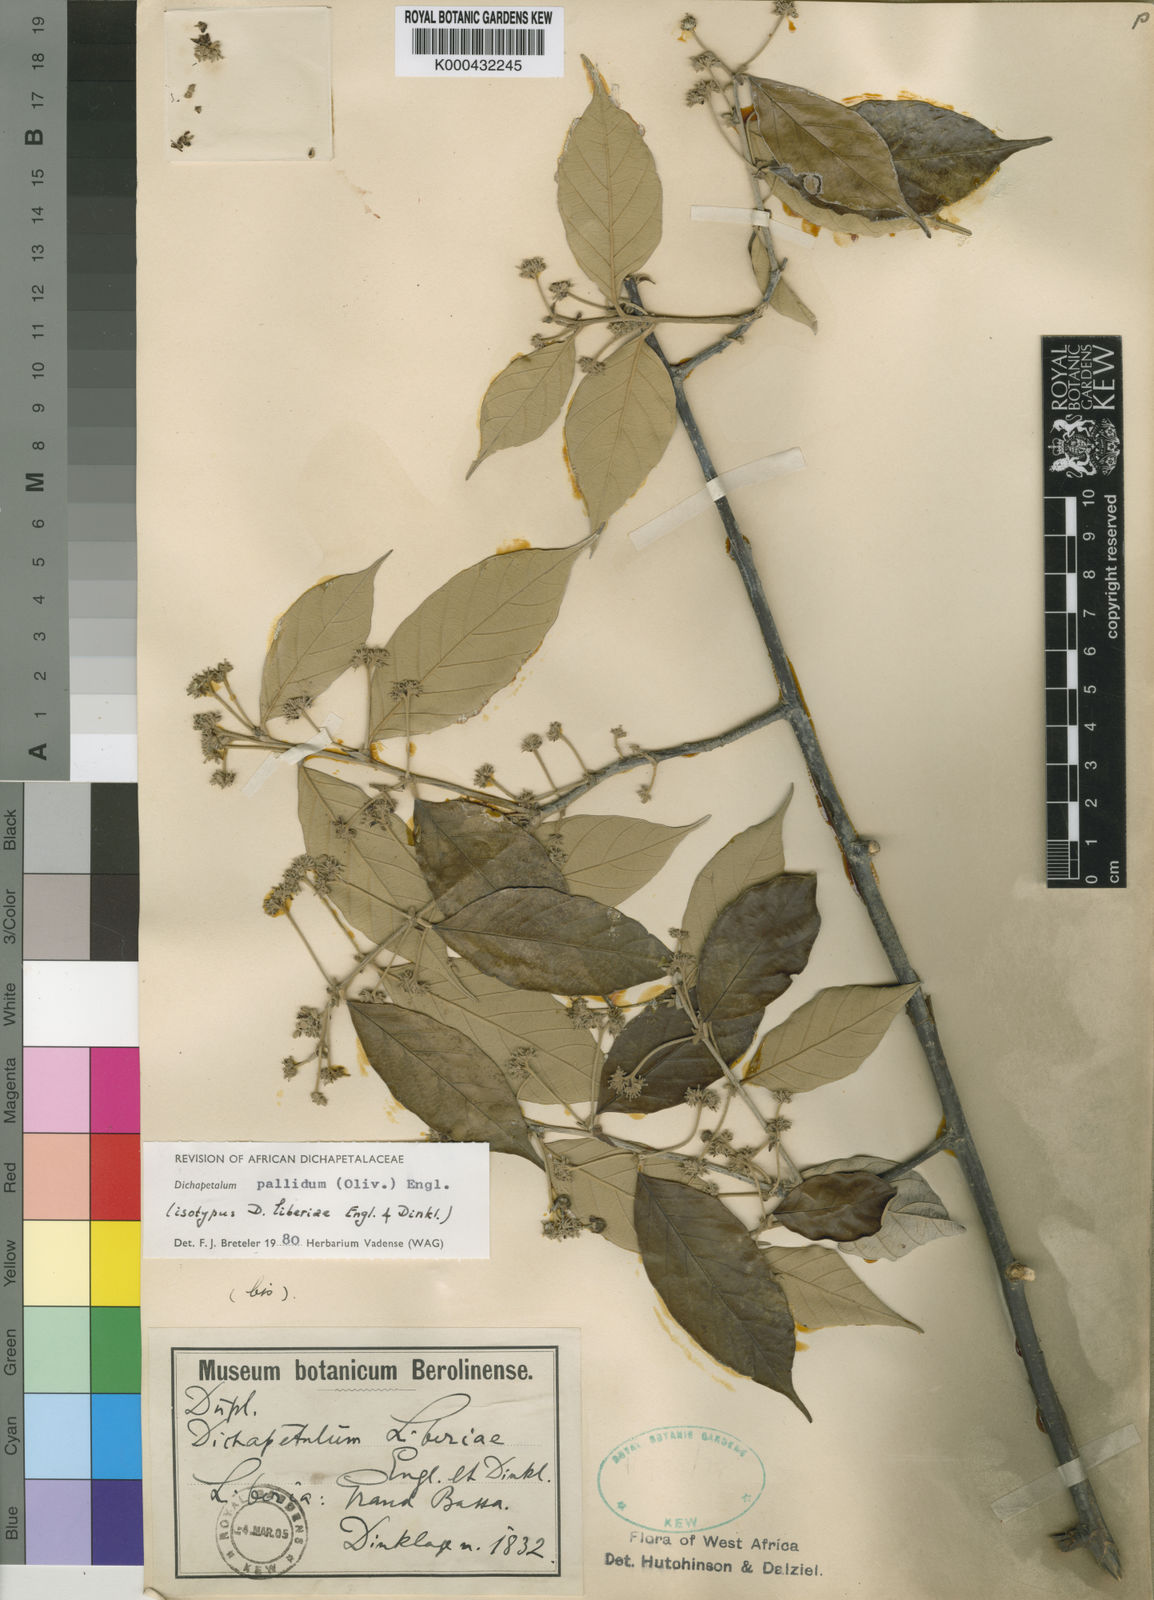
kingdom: Plantae
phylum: Tracheophyta
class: Magnoliopsida
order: Malpighiales
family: Dichapetalaceae
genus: Dichapetalum
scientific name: Dichapetalum pallidum
